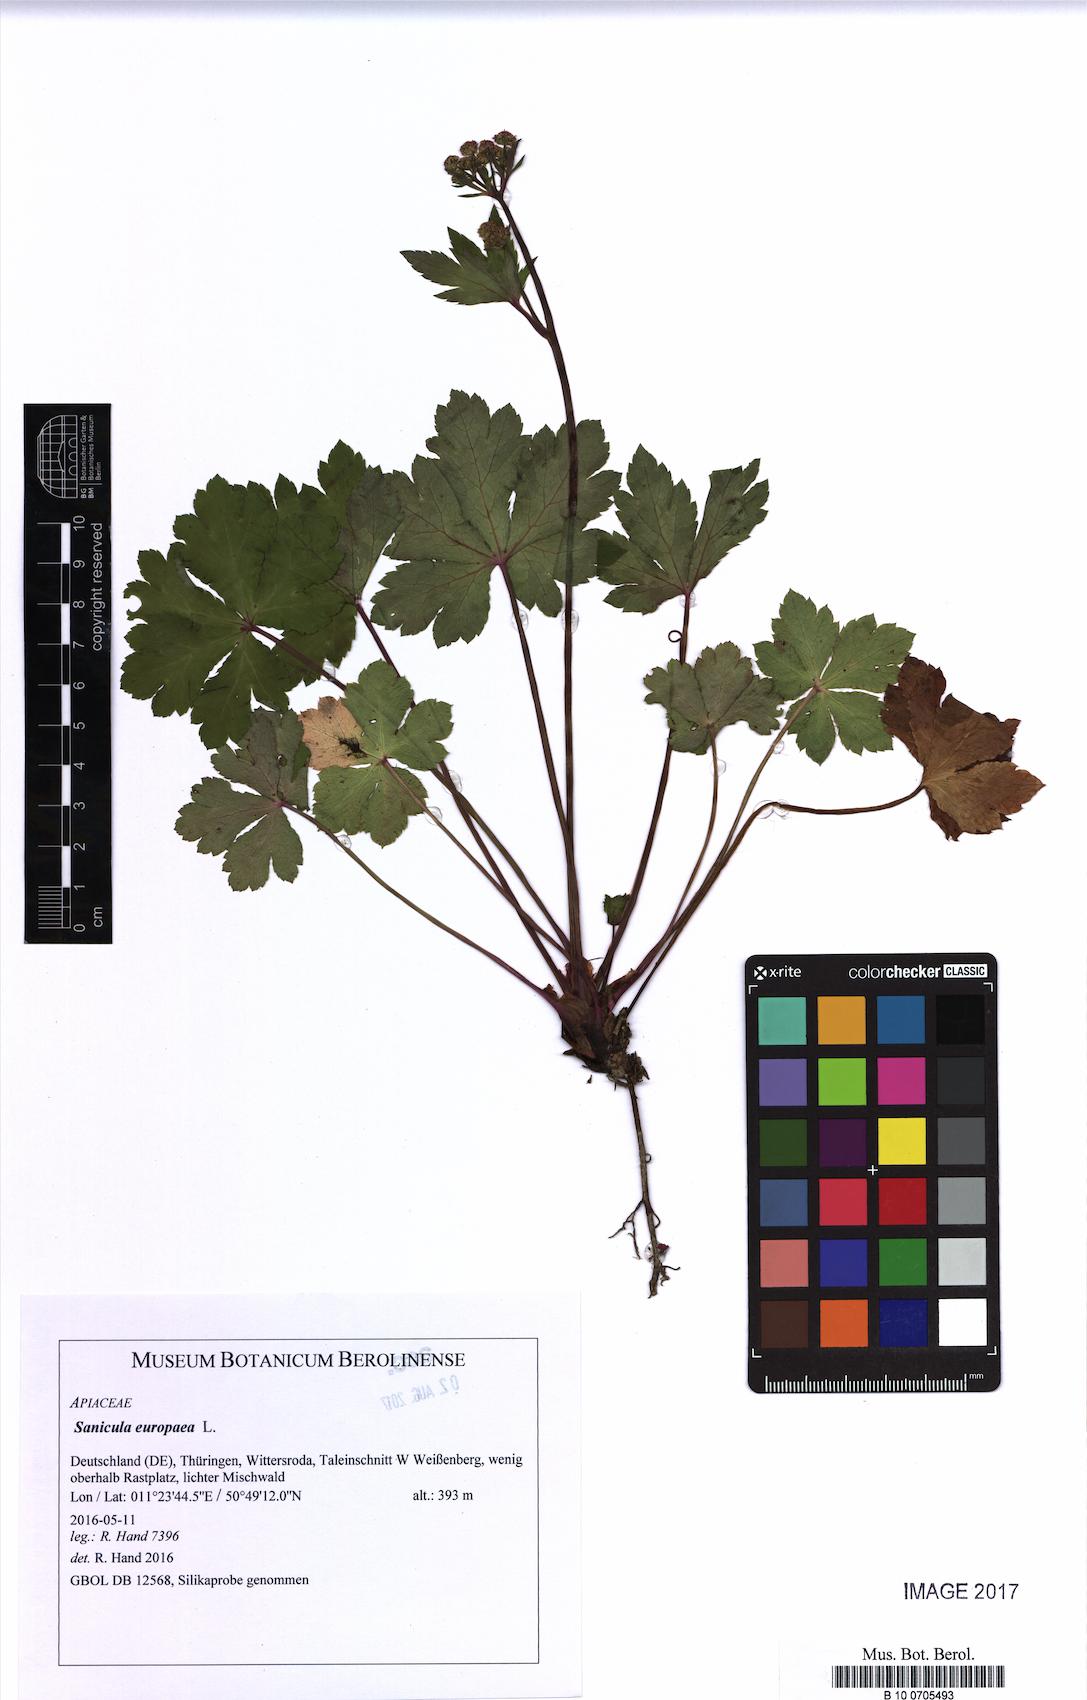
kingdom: Plantae
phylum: Tracheophyta
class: Magnoliopsida
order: Apiales
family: Apiaceae
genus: Sanicula
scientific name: Sanicula europaea
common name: Sanicle
